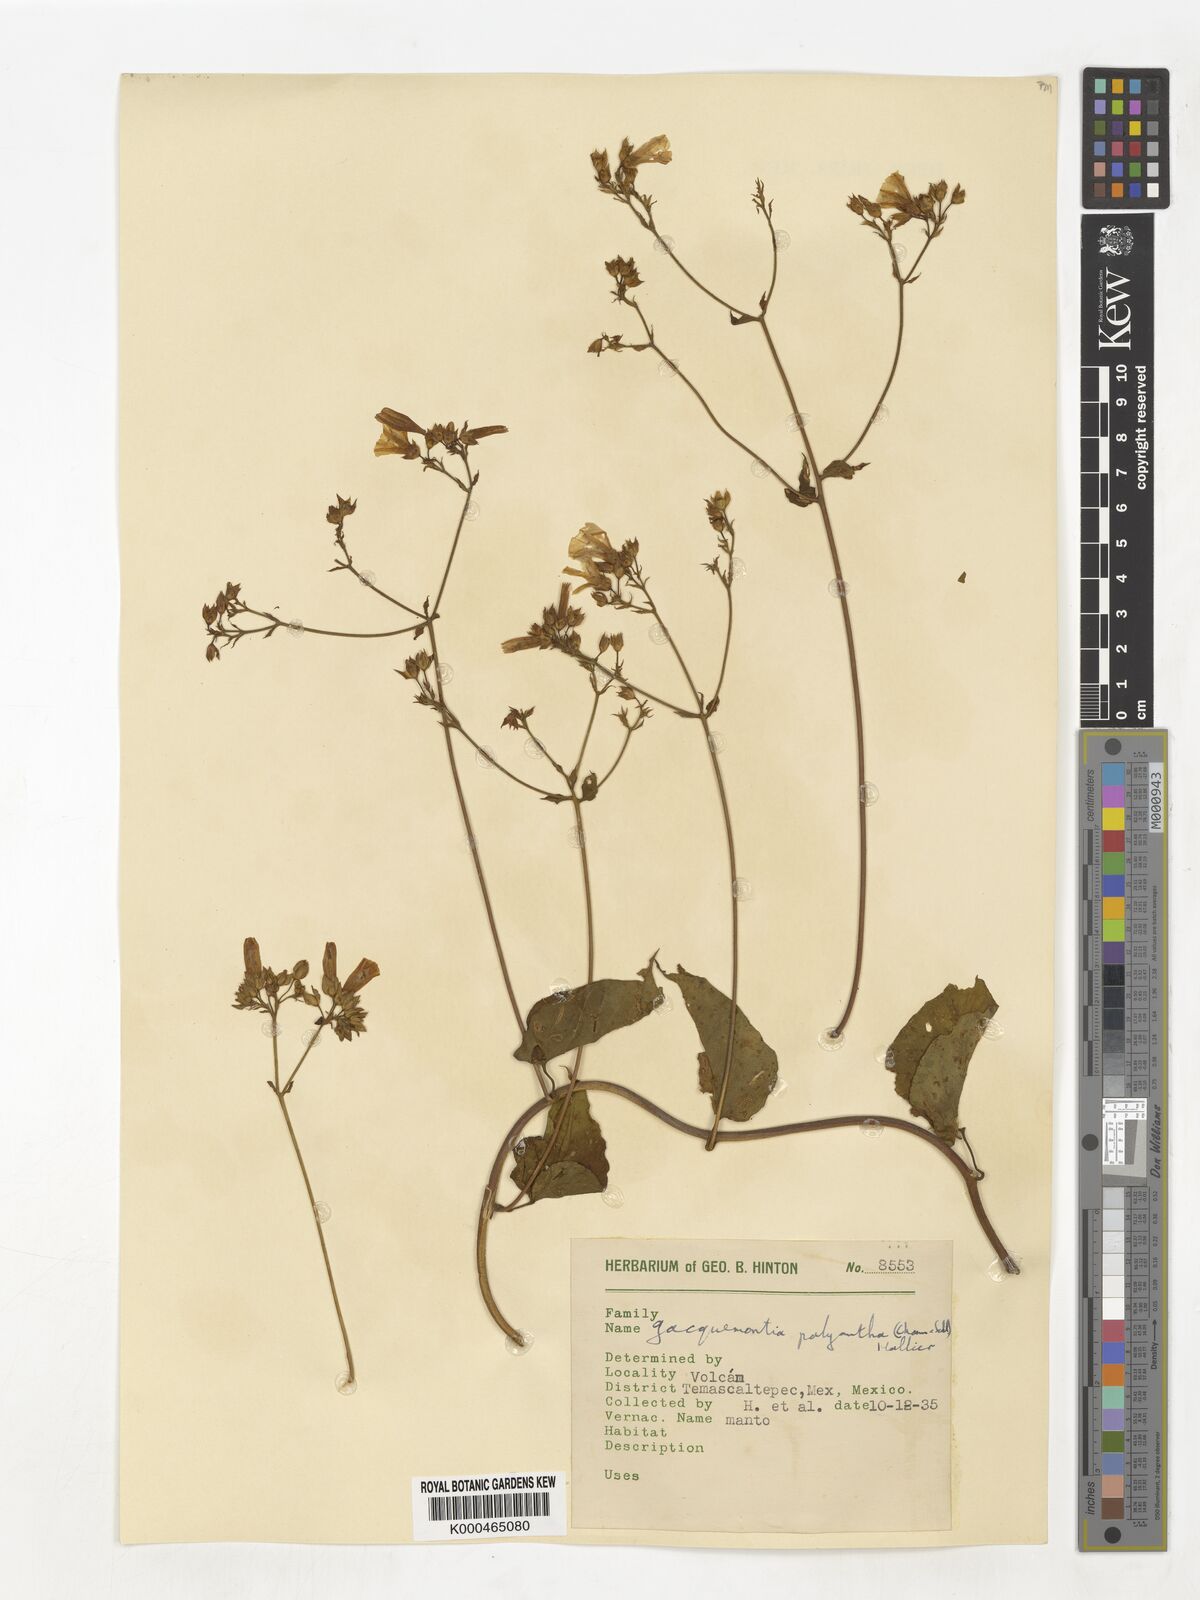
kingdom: Plantae
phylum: Tracheophyta
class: Magnoliopsida
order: Solanales
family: Convolvulaceae
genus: Jacquemontia
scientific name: Jacquemontia polyantha
